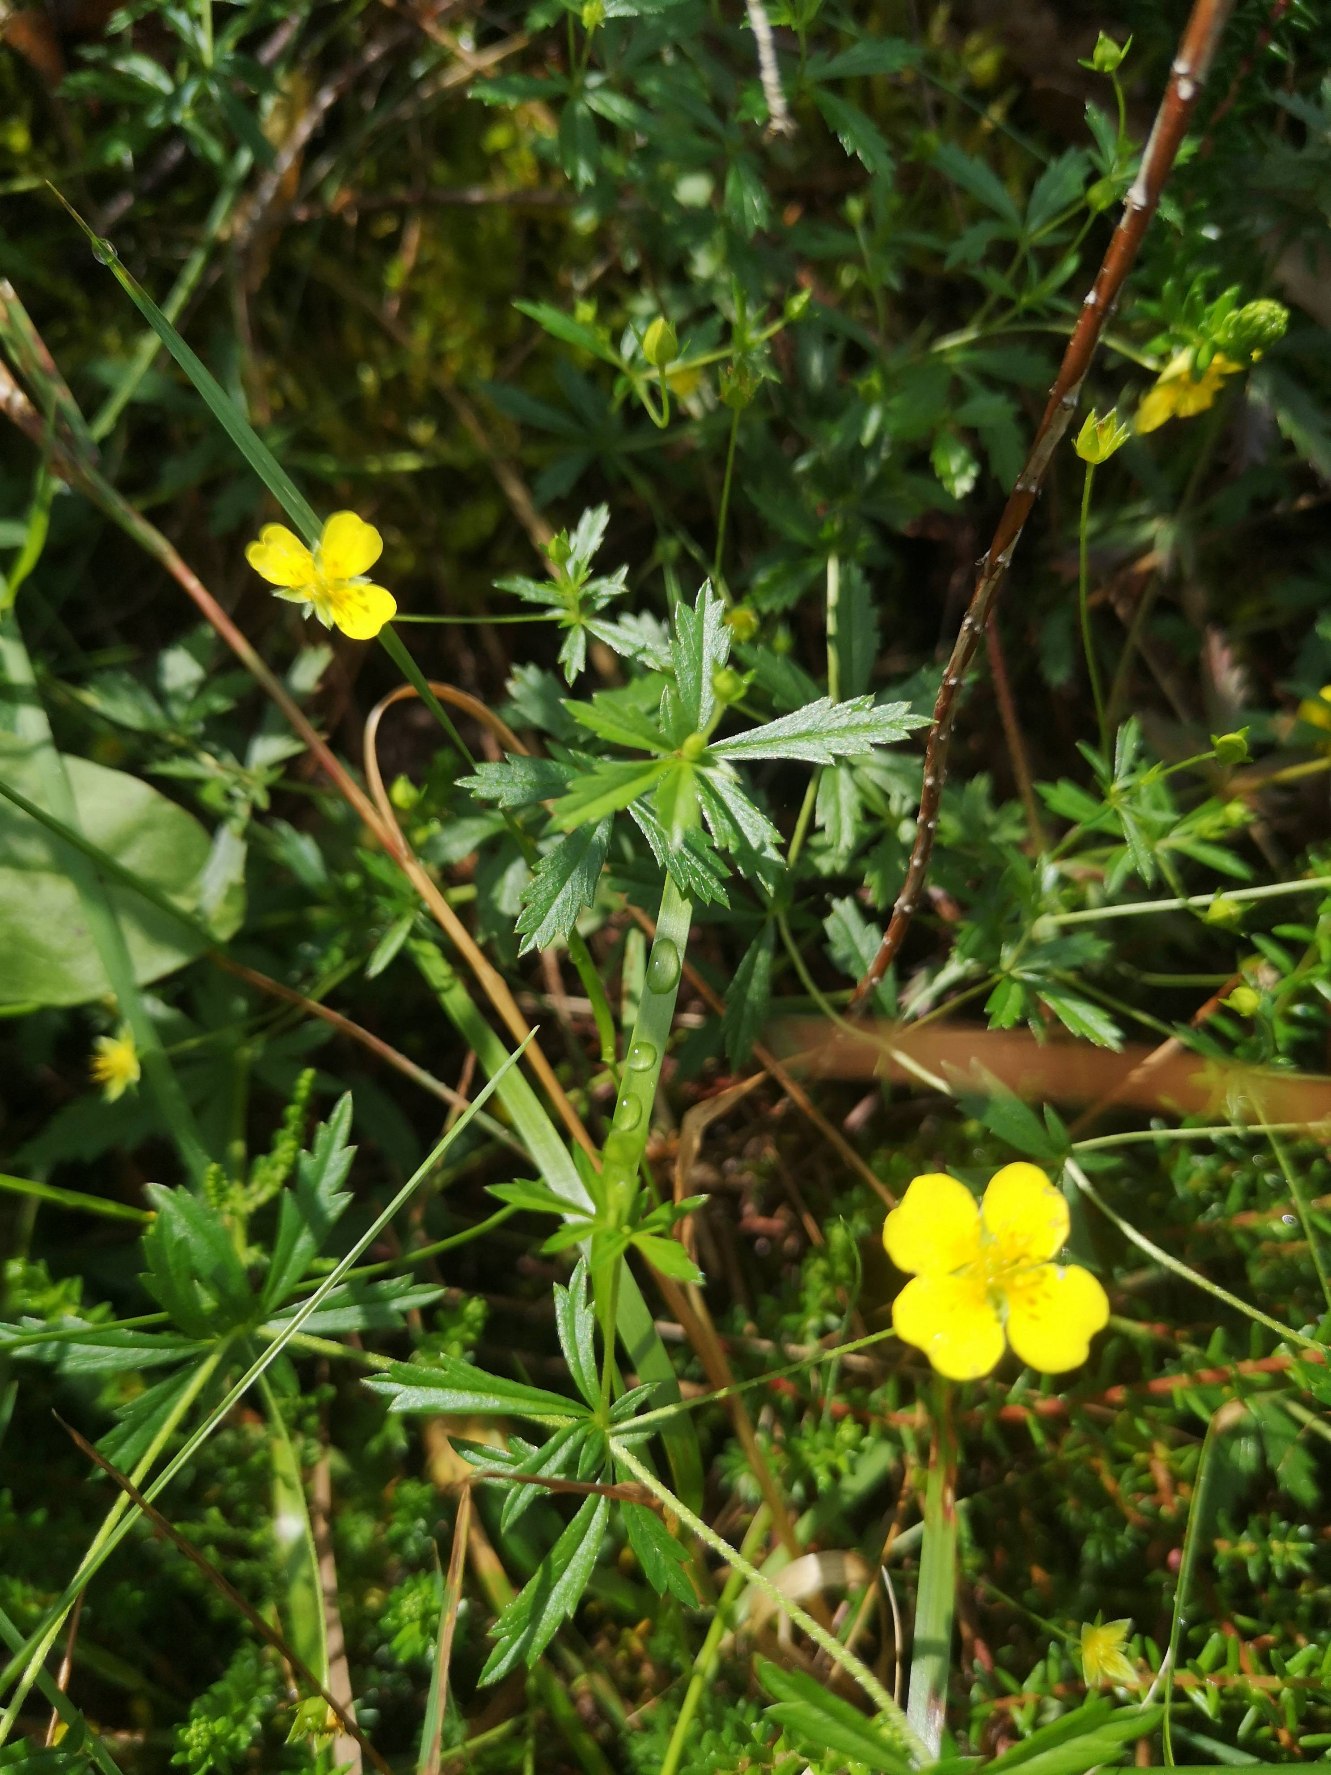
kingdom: Plantae
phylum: Tracheophyta
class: Magnoliopsida
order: Rosales
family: Rosaceae
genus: Potentilla
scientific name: Potentilla erecta
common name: Tormentil
